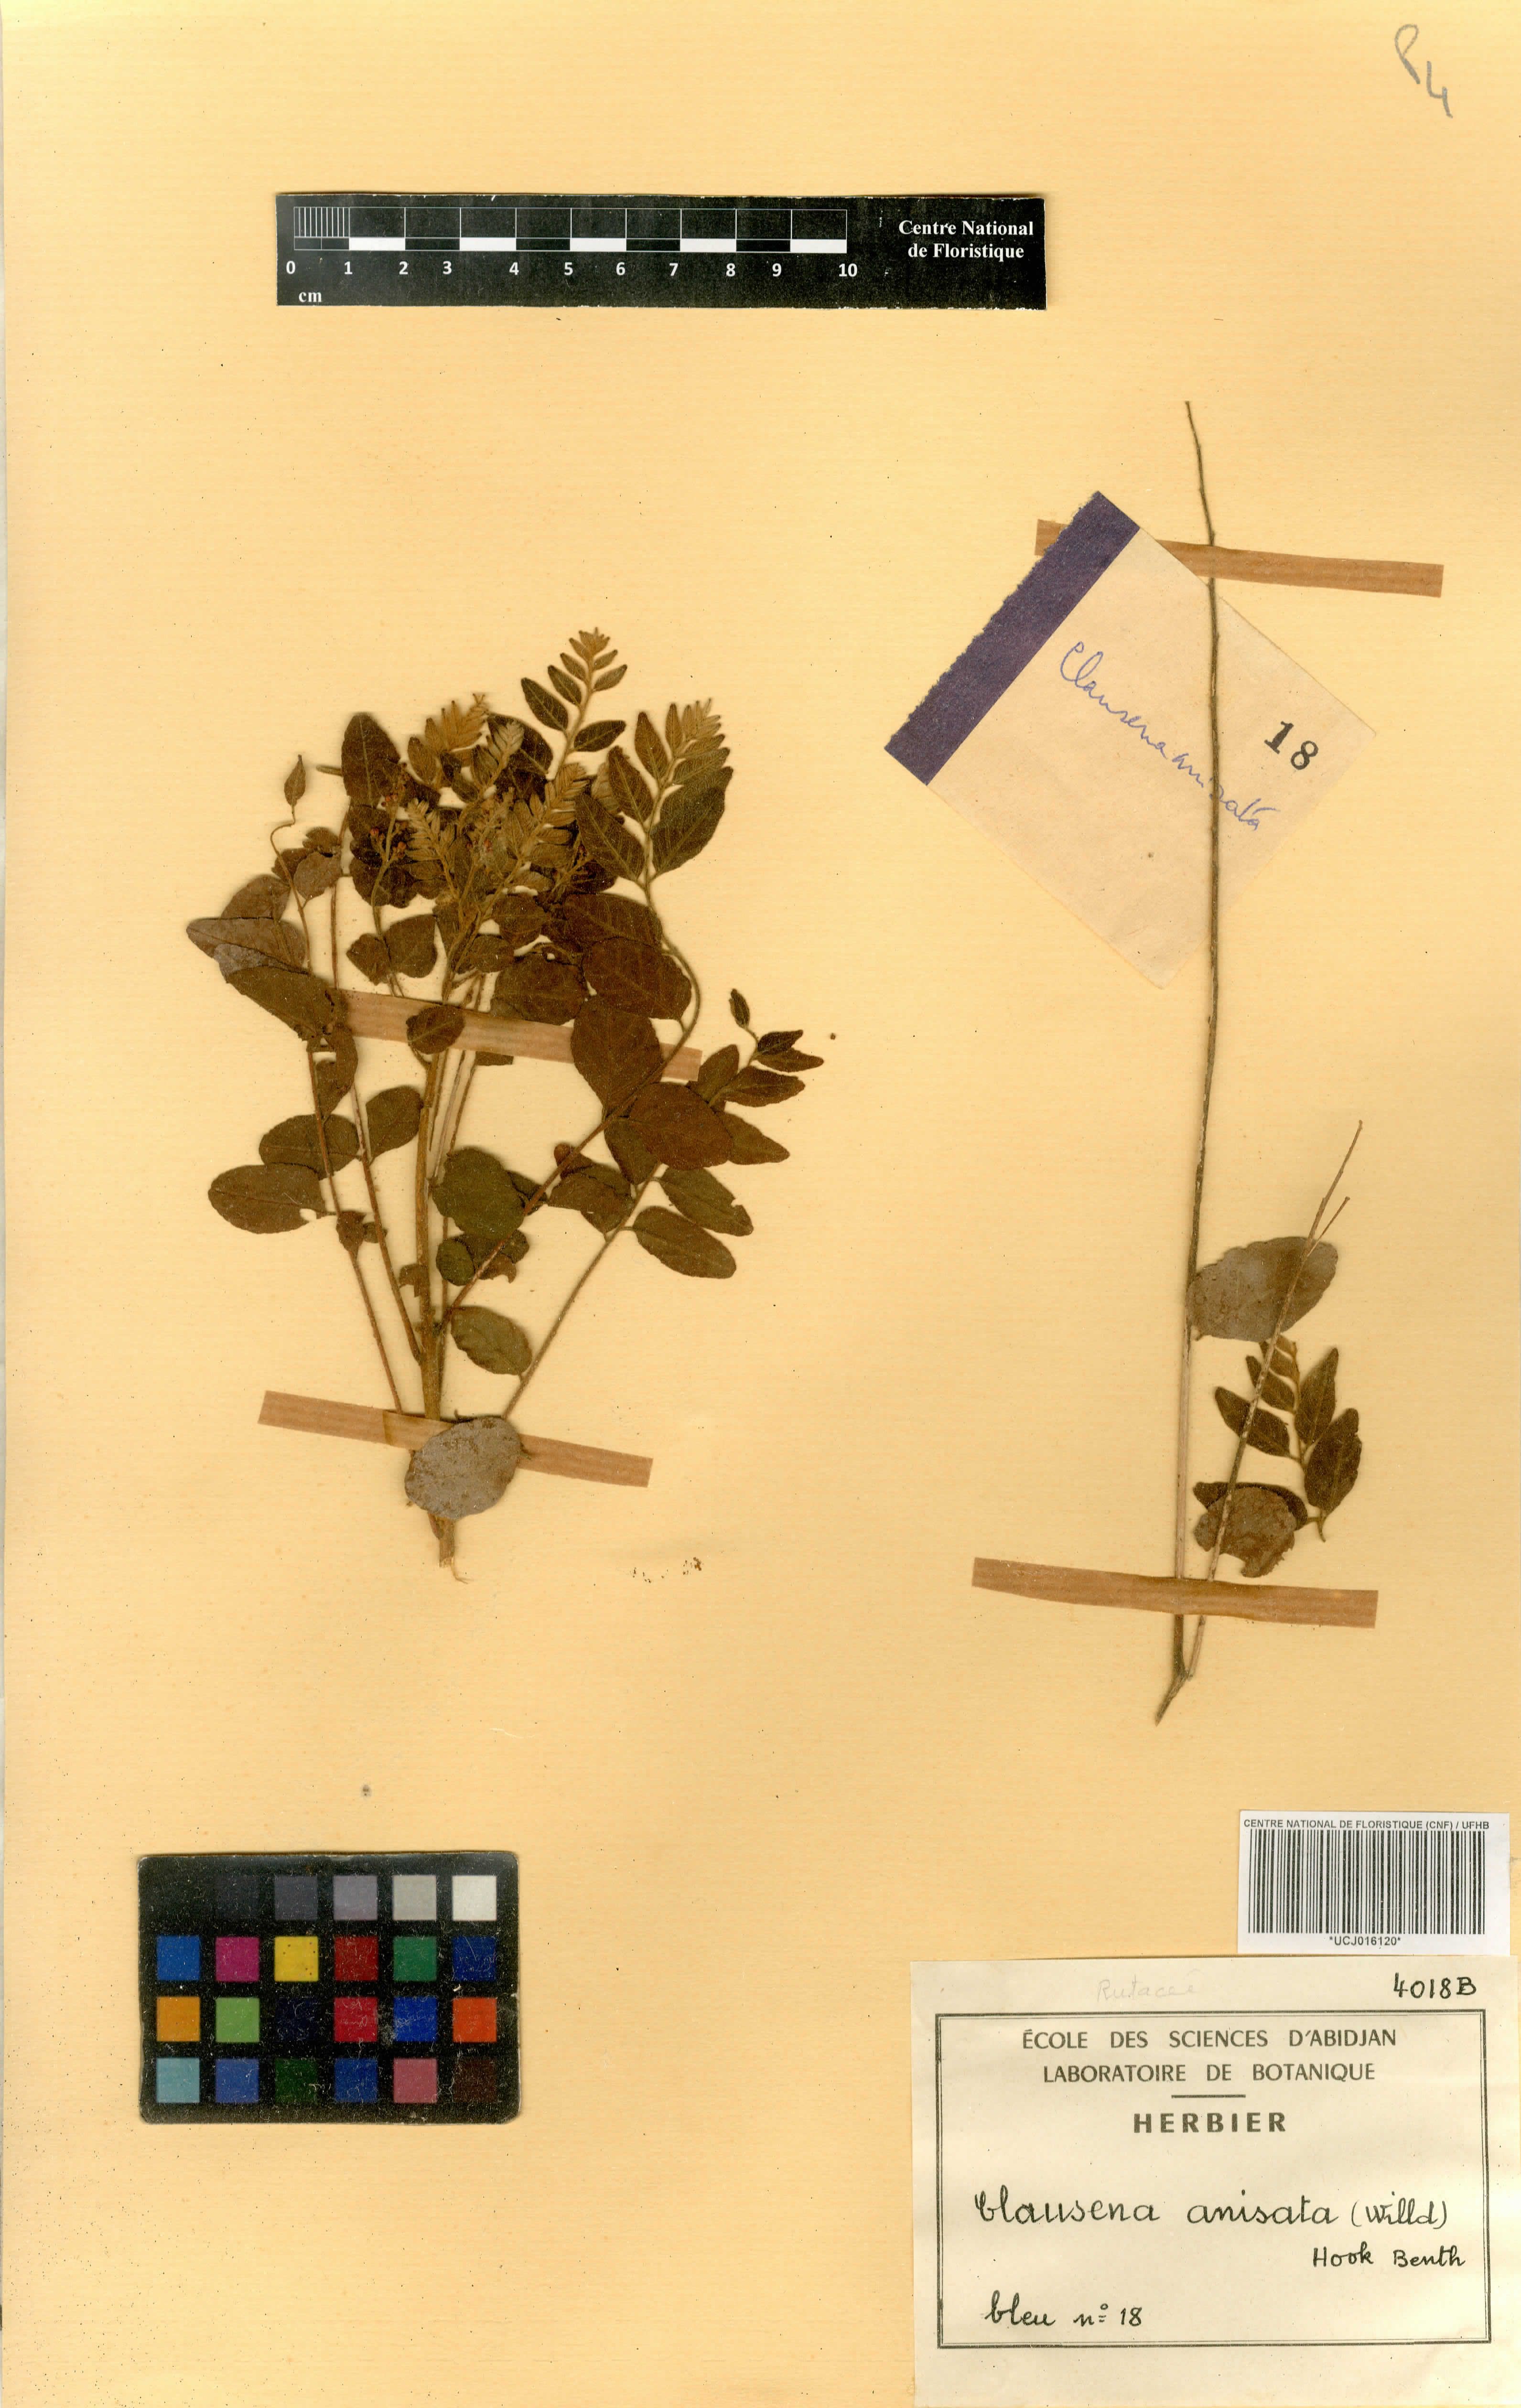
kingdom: Plantae
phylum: Tracheophyta
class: Magnoliopsida
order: Sapindales
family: Rutaceae
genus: Clausena
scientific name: Clausena anisata
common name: Horsewood
